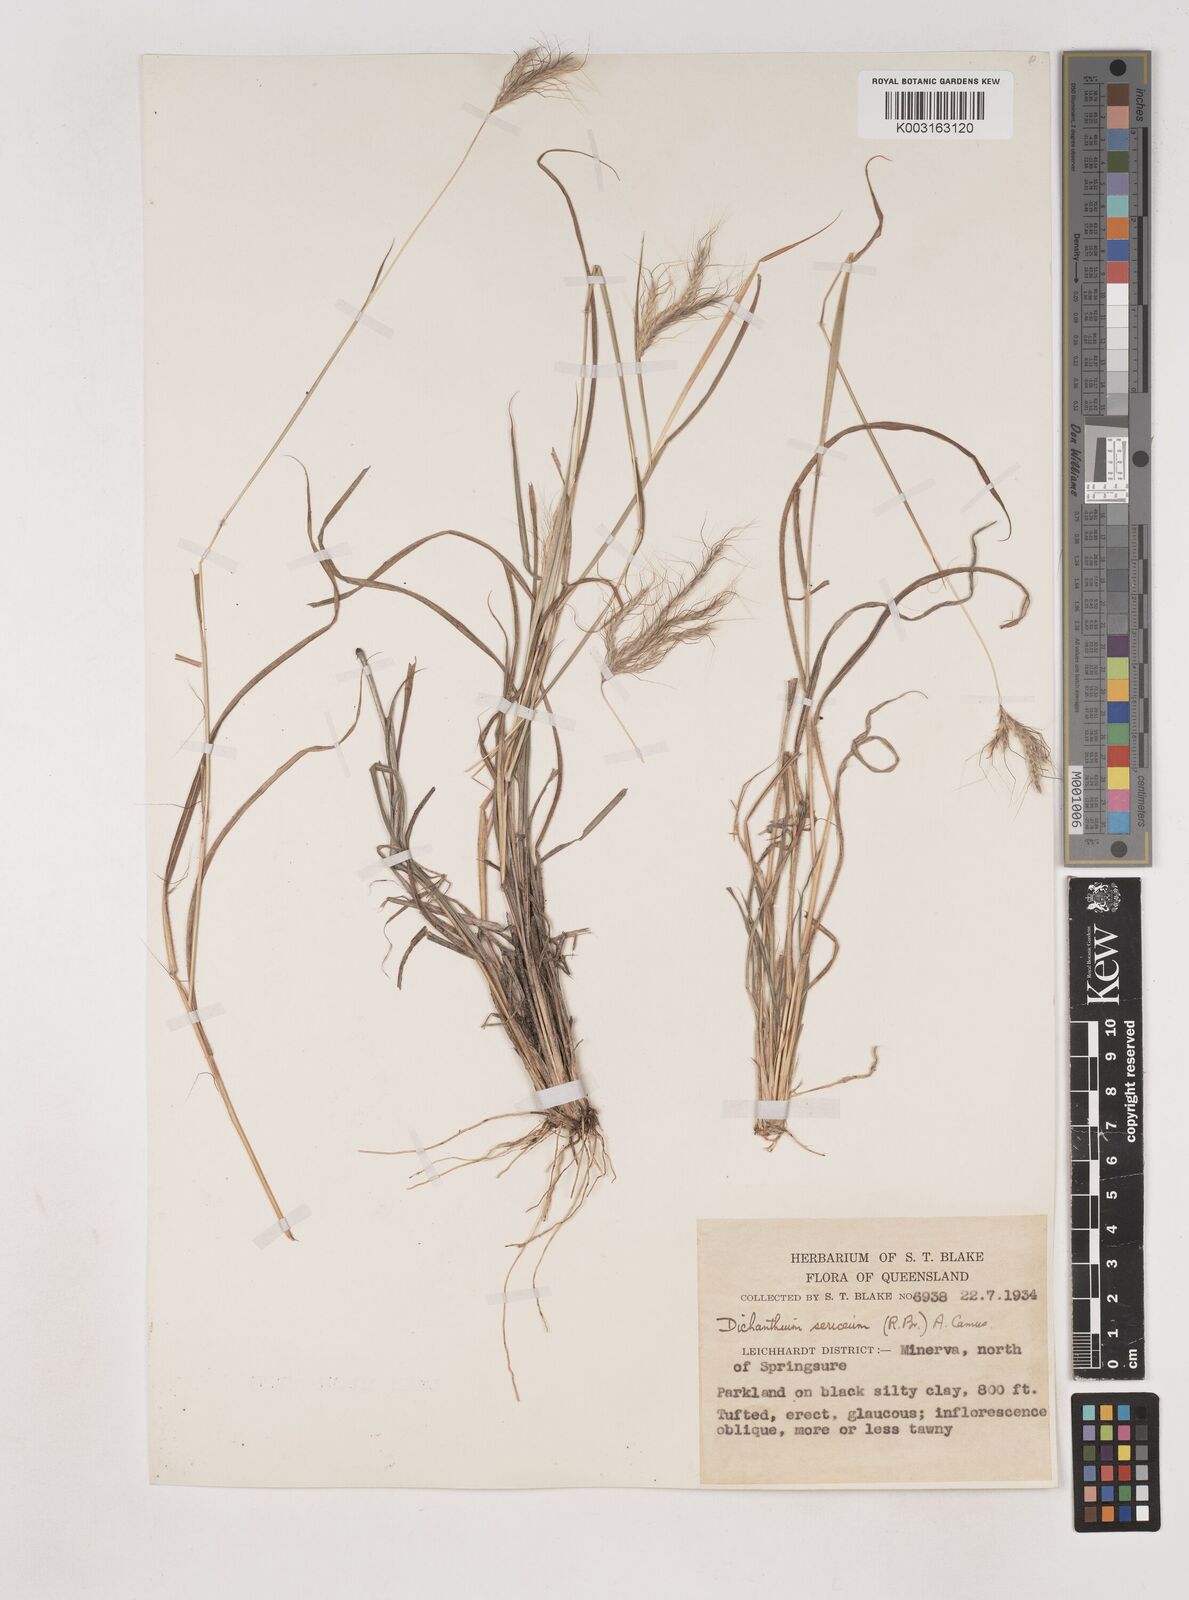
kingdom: Plantae
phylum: Tracheophyta
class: Liliopsida
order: Poales
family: Poaceae
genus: Dichanthium
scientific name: Dichanthium sericeum
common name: Silky bluestem
